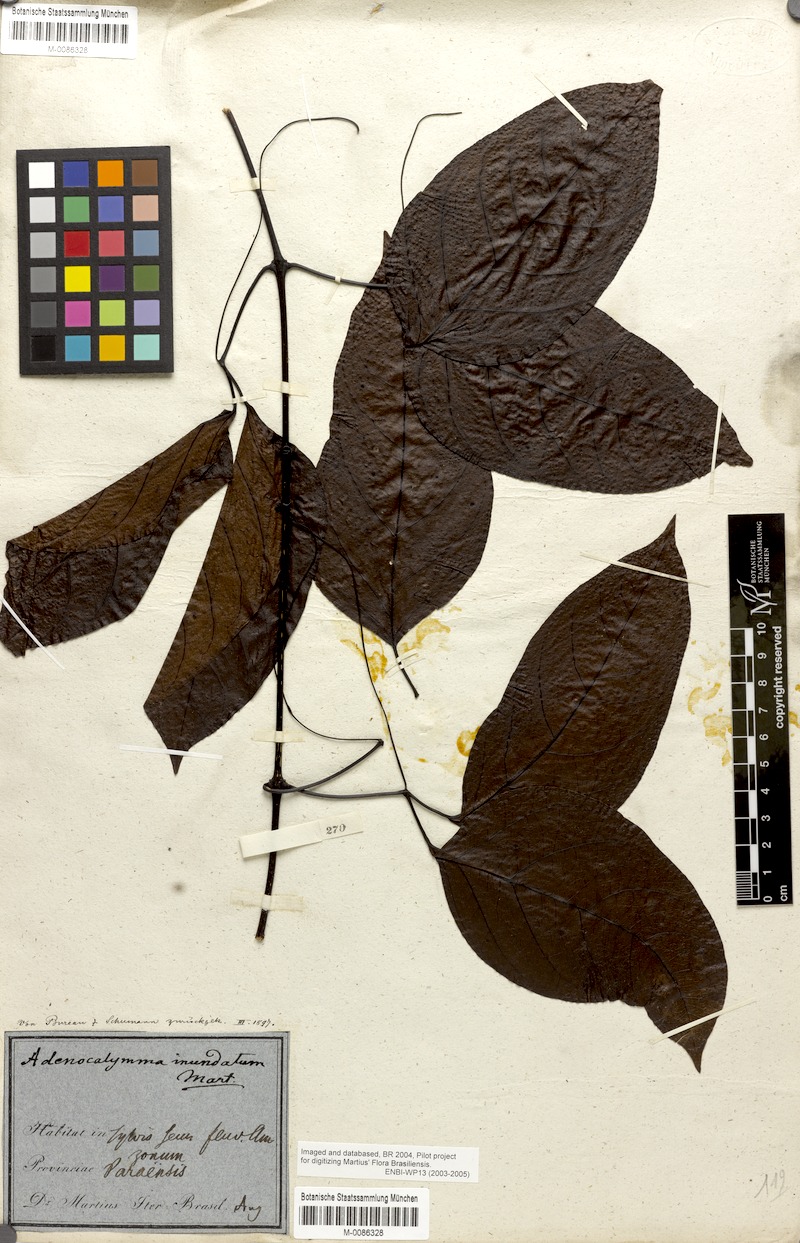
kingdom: Plantae
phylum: Tracheophyta
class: Magnoliopsida
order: Lamiales
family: Bignoniaceae
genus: Adenocalymma
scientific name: Adenocalymma inundatum
